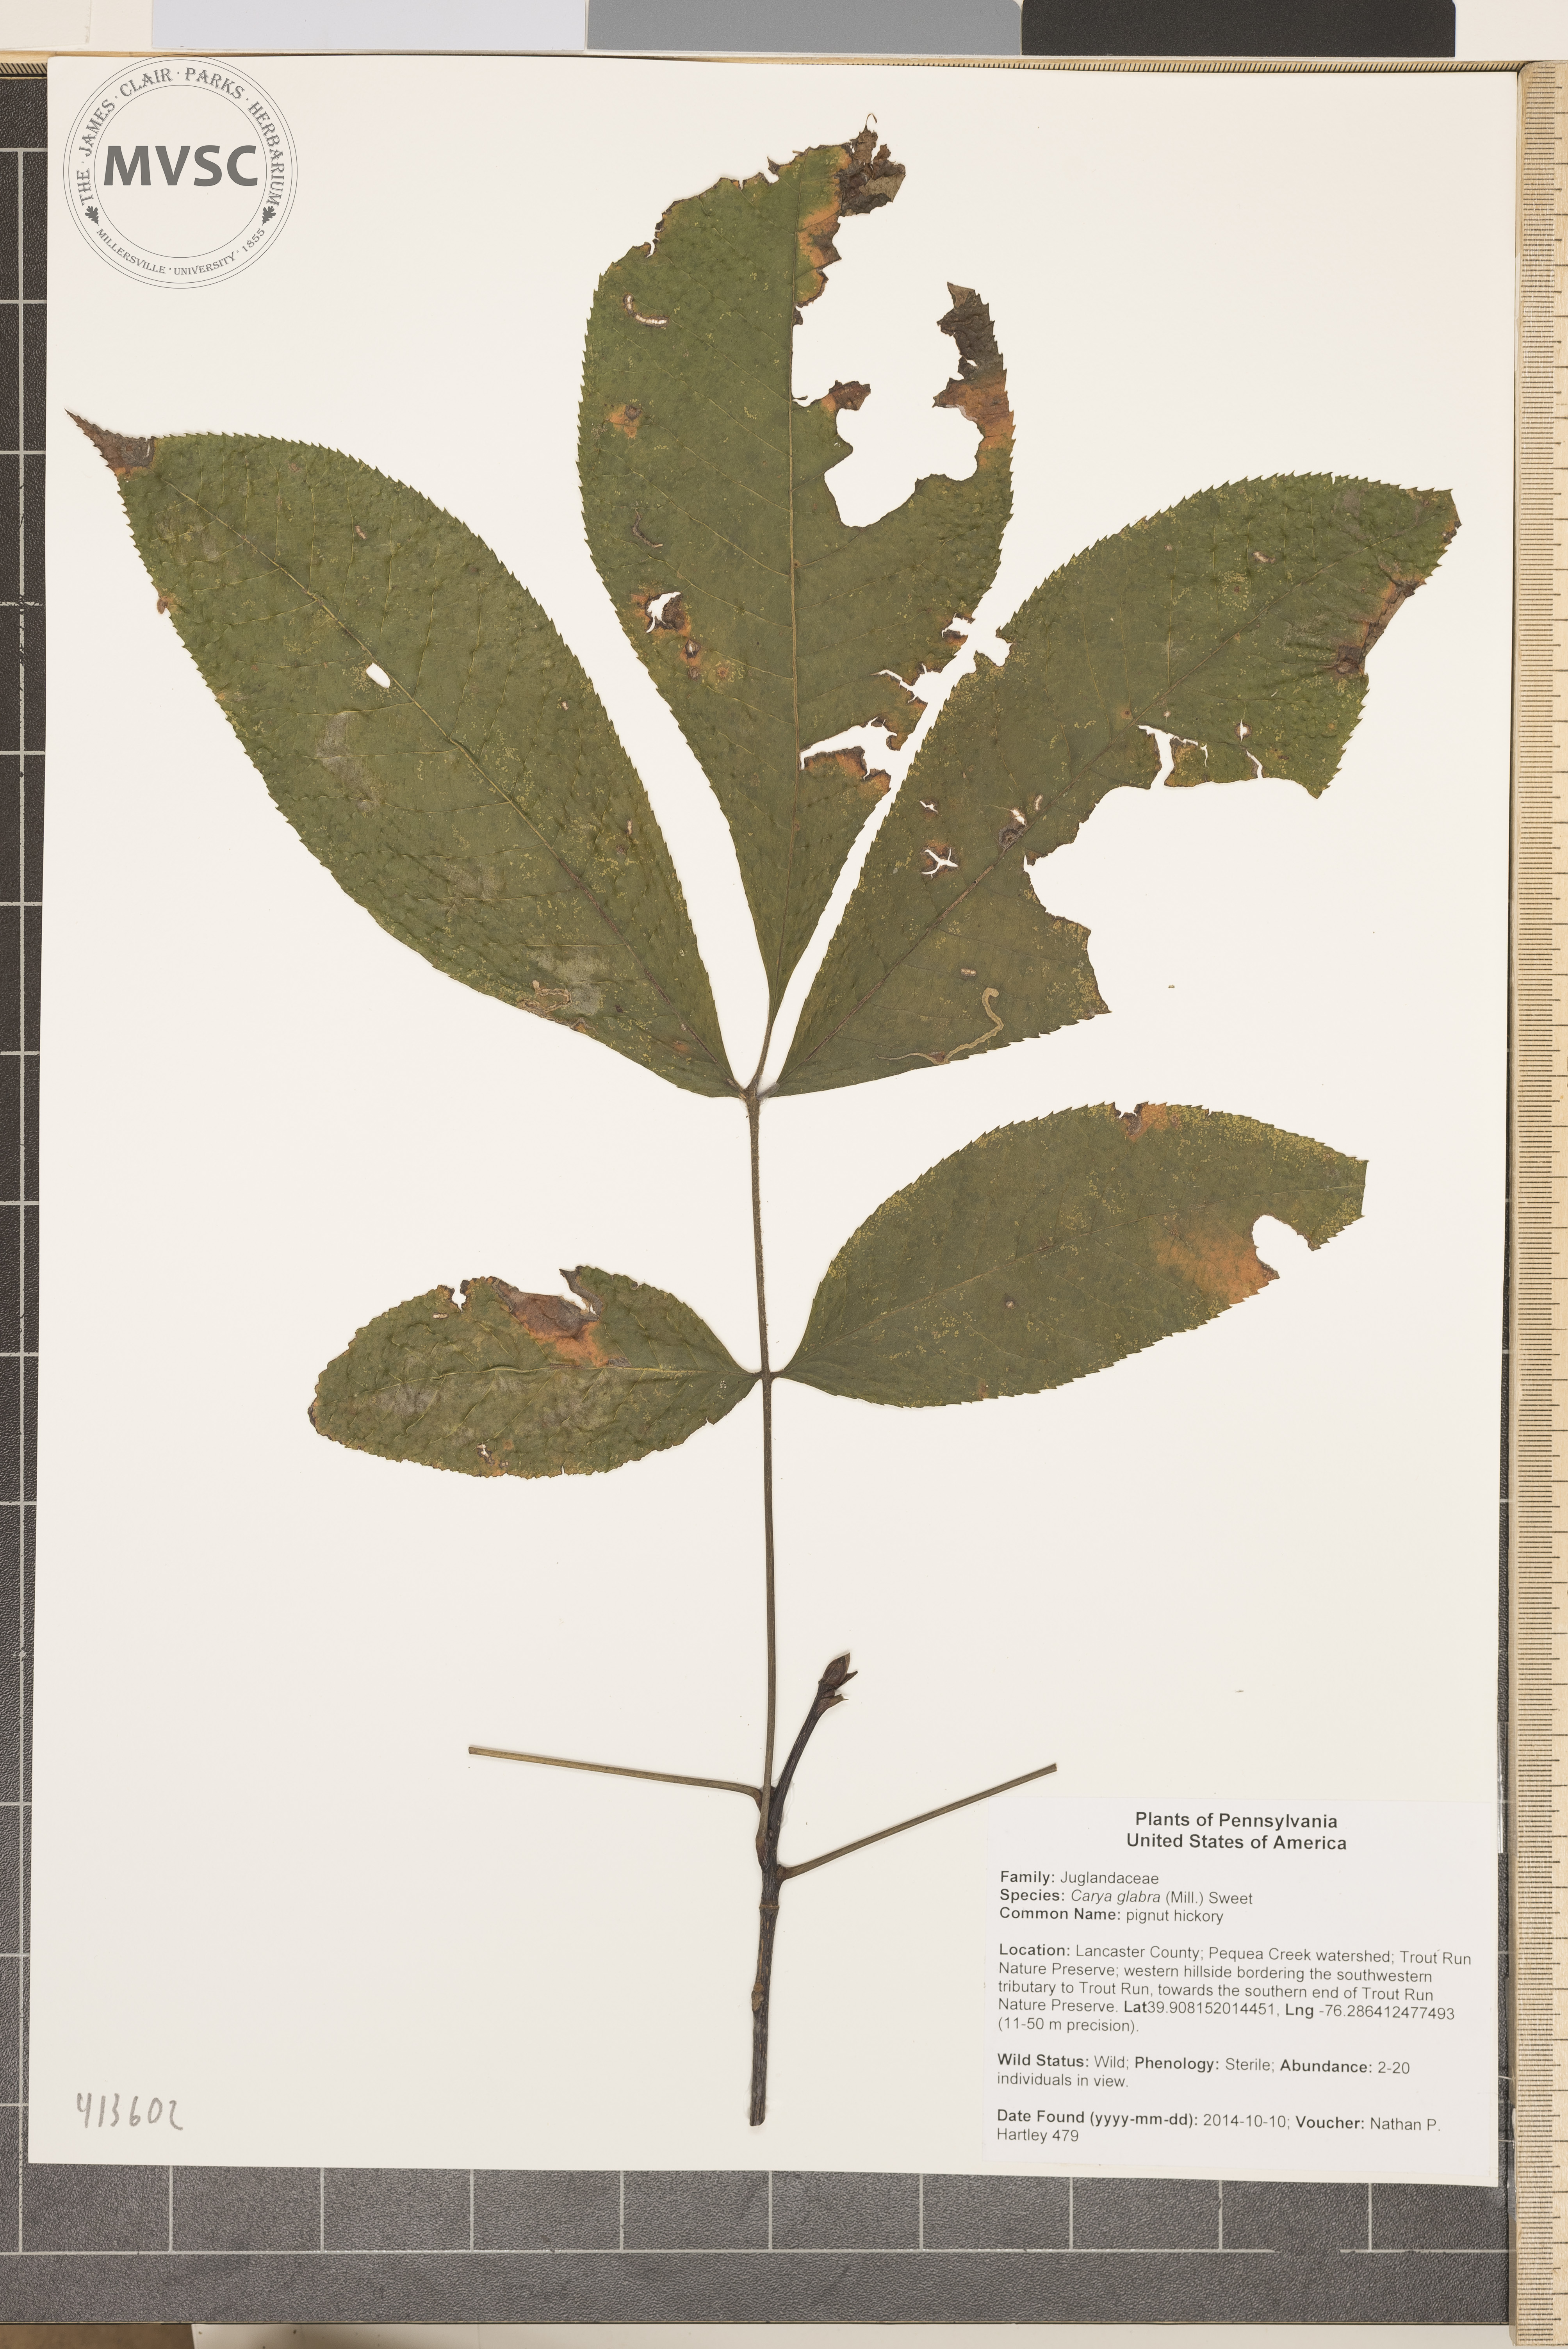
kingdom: Plantae
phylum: Tracheophyta
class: Magnoliopsida
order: Fagales
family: Juglandaceae
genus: Carya
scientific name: Carya glabra
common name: pignut hickory
